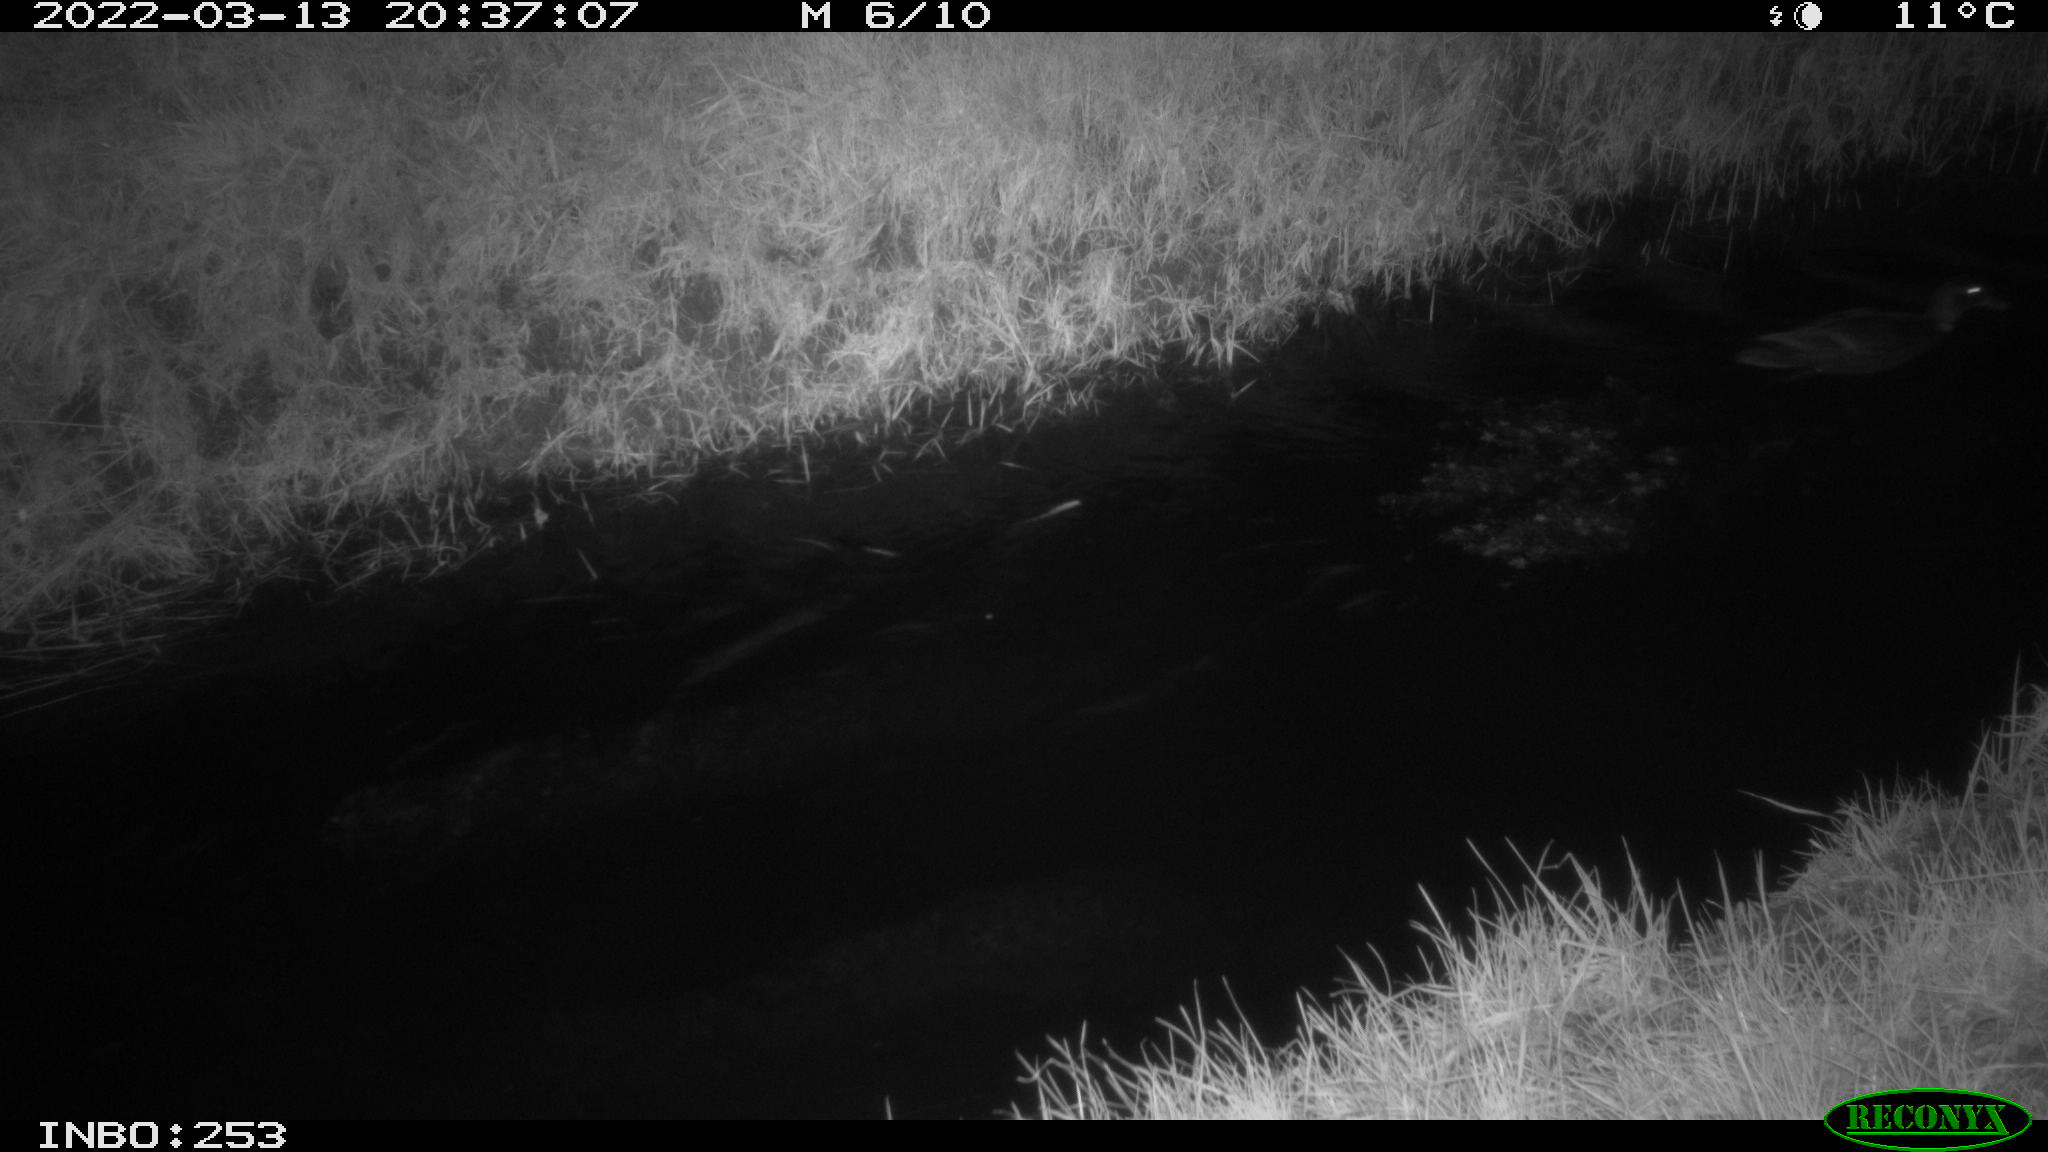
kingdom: Animalia
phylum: Chordata
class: Aves
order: Anseriformes
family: Anatidae
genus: Anas
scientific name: Anas platyrhynchos
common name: Mallard
